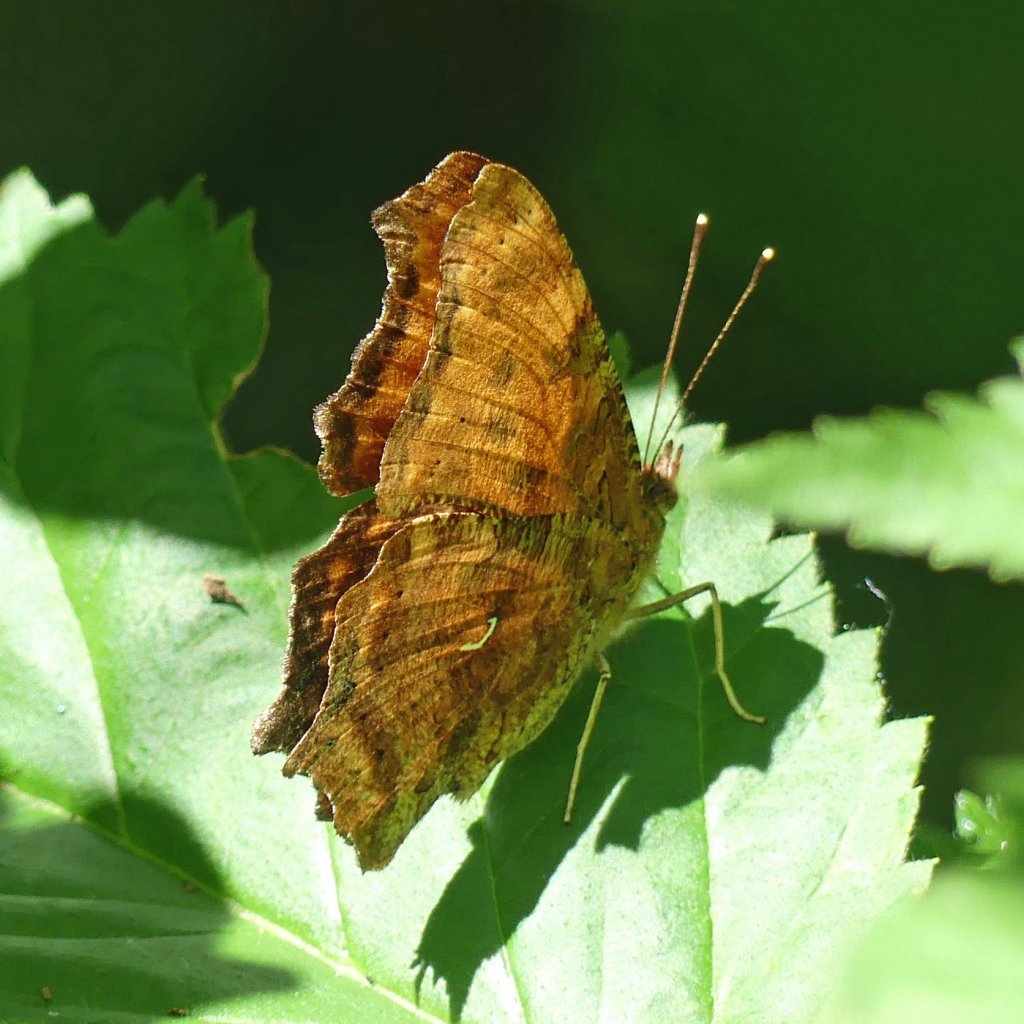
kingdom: Animalia
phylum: Arthropoda
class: Insecta
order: Lepidoptera
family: Nymphalidae
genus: Polygonia
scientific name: Polygonia comma
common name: Eastern Comma
